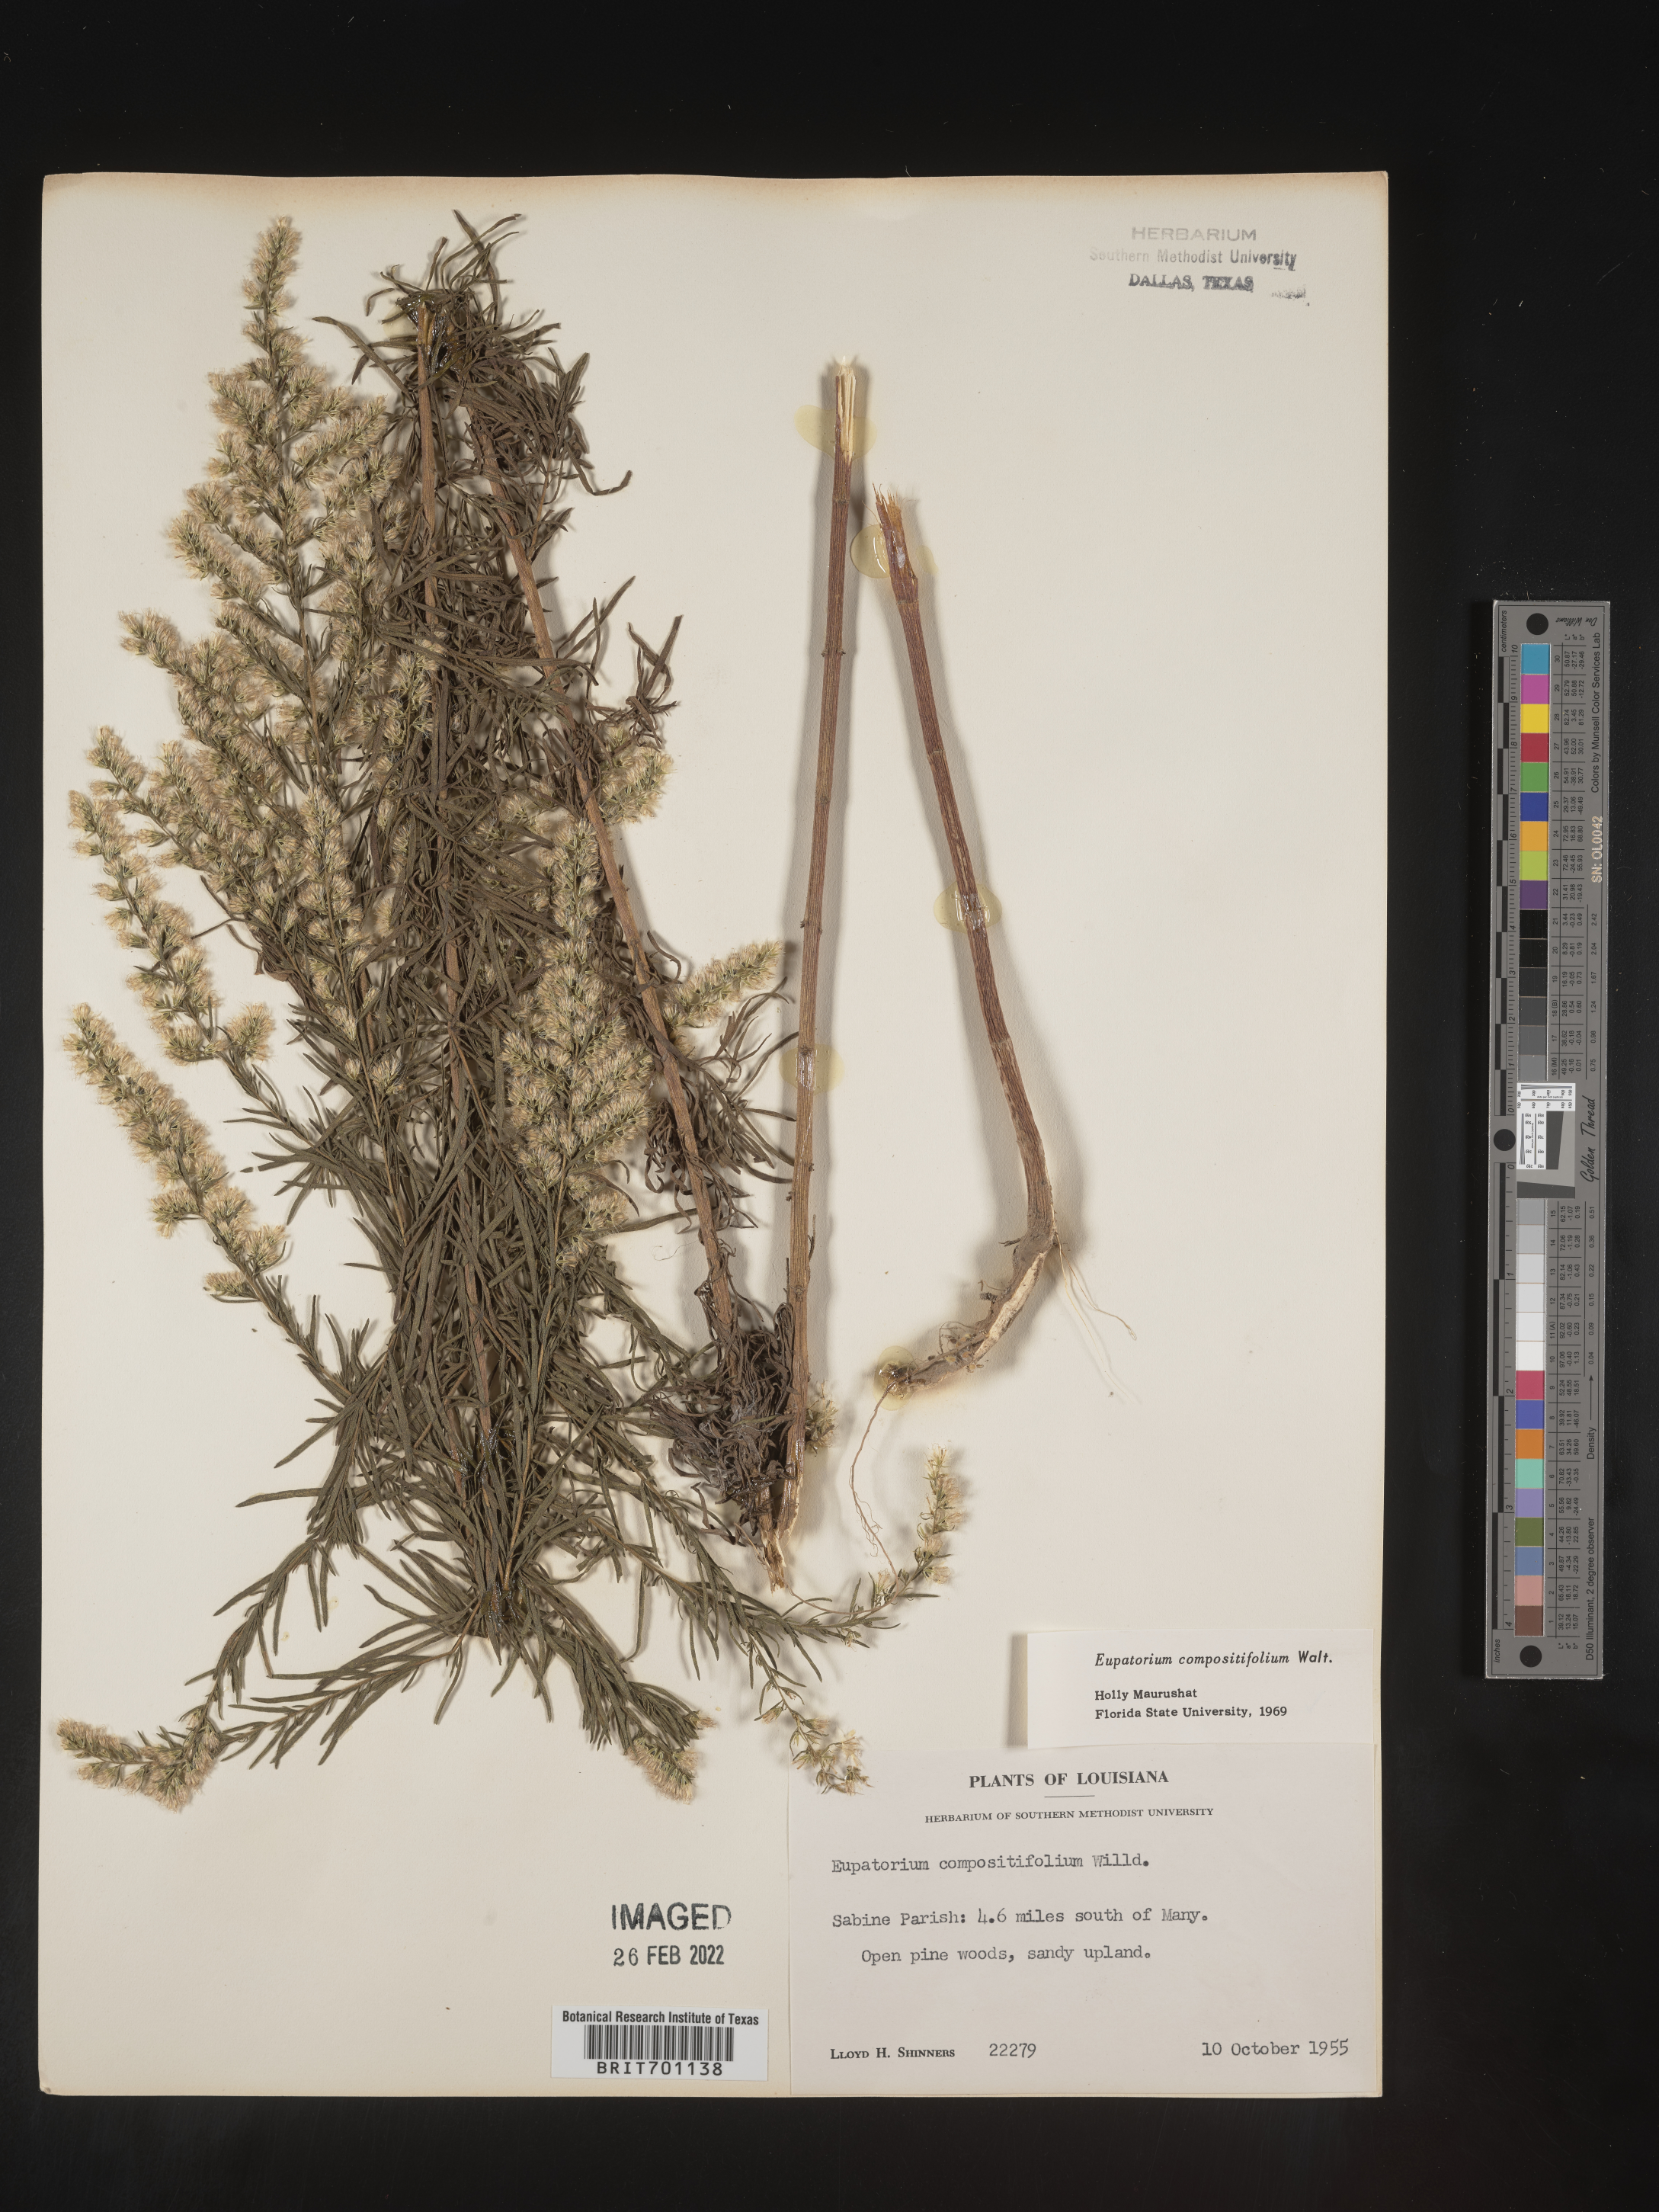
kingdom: Plantae
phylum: Tracheophyta
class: Magnoliopsida
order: Asterales
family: Asteraceae
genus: Eupatorium
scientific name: Eupatorium compositifolium
